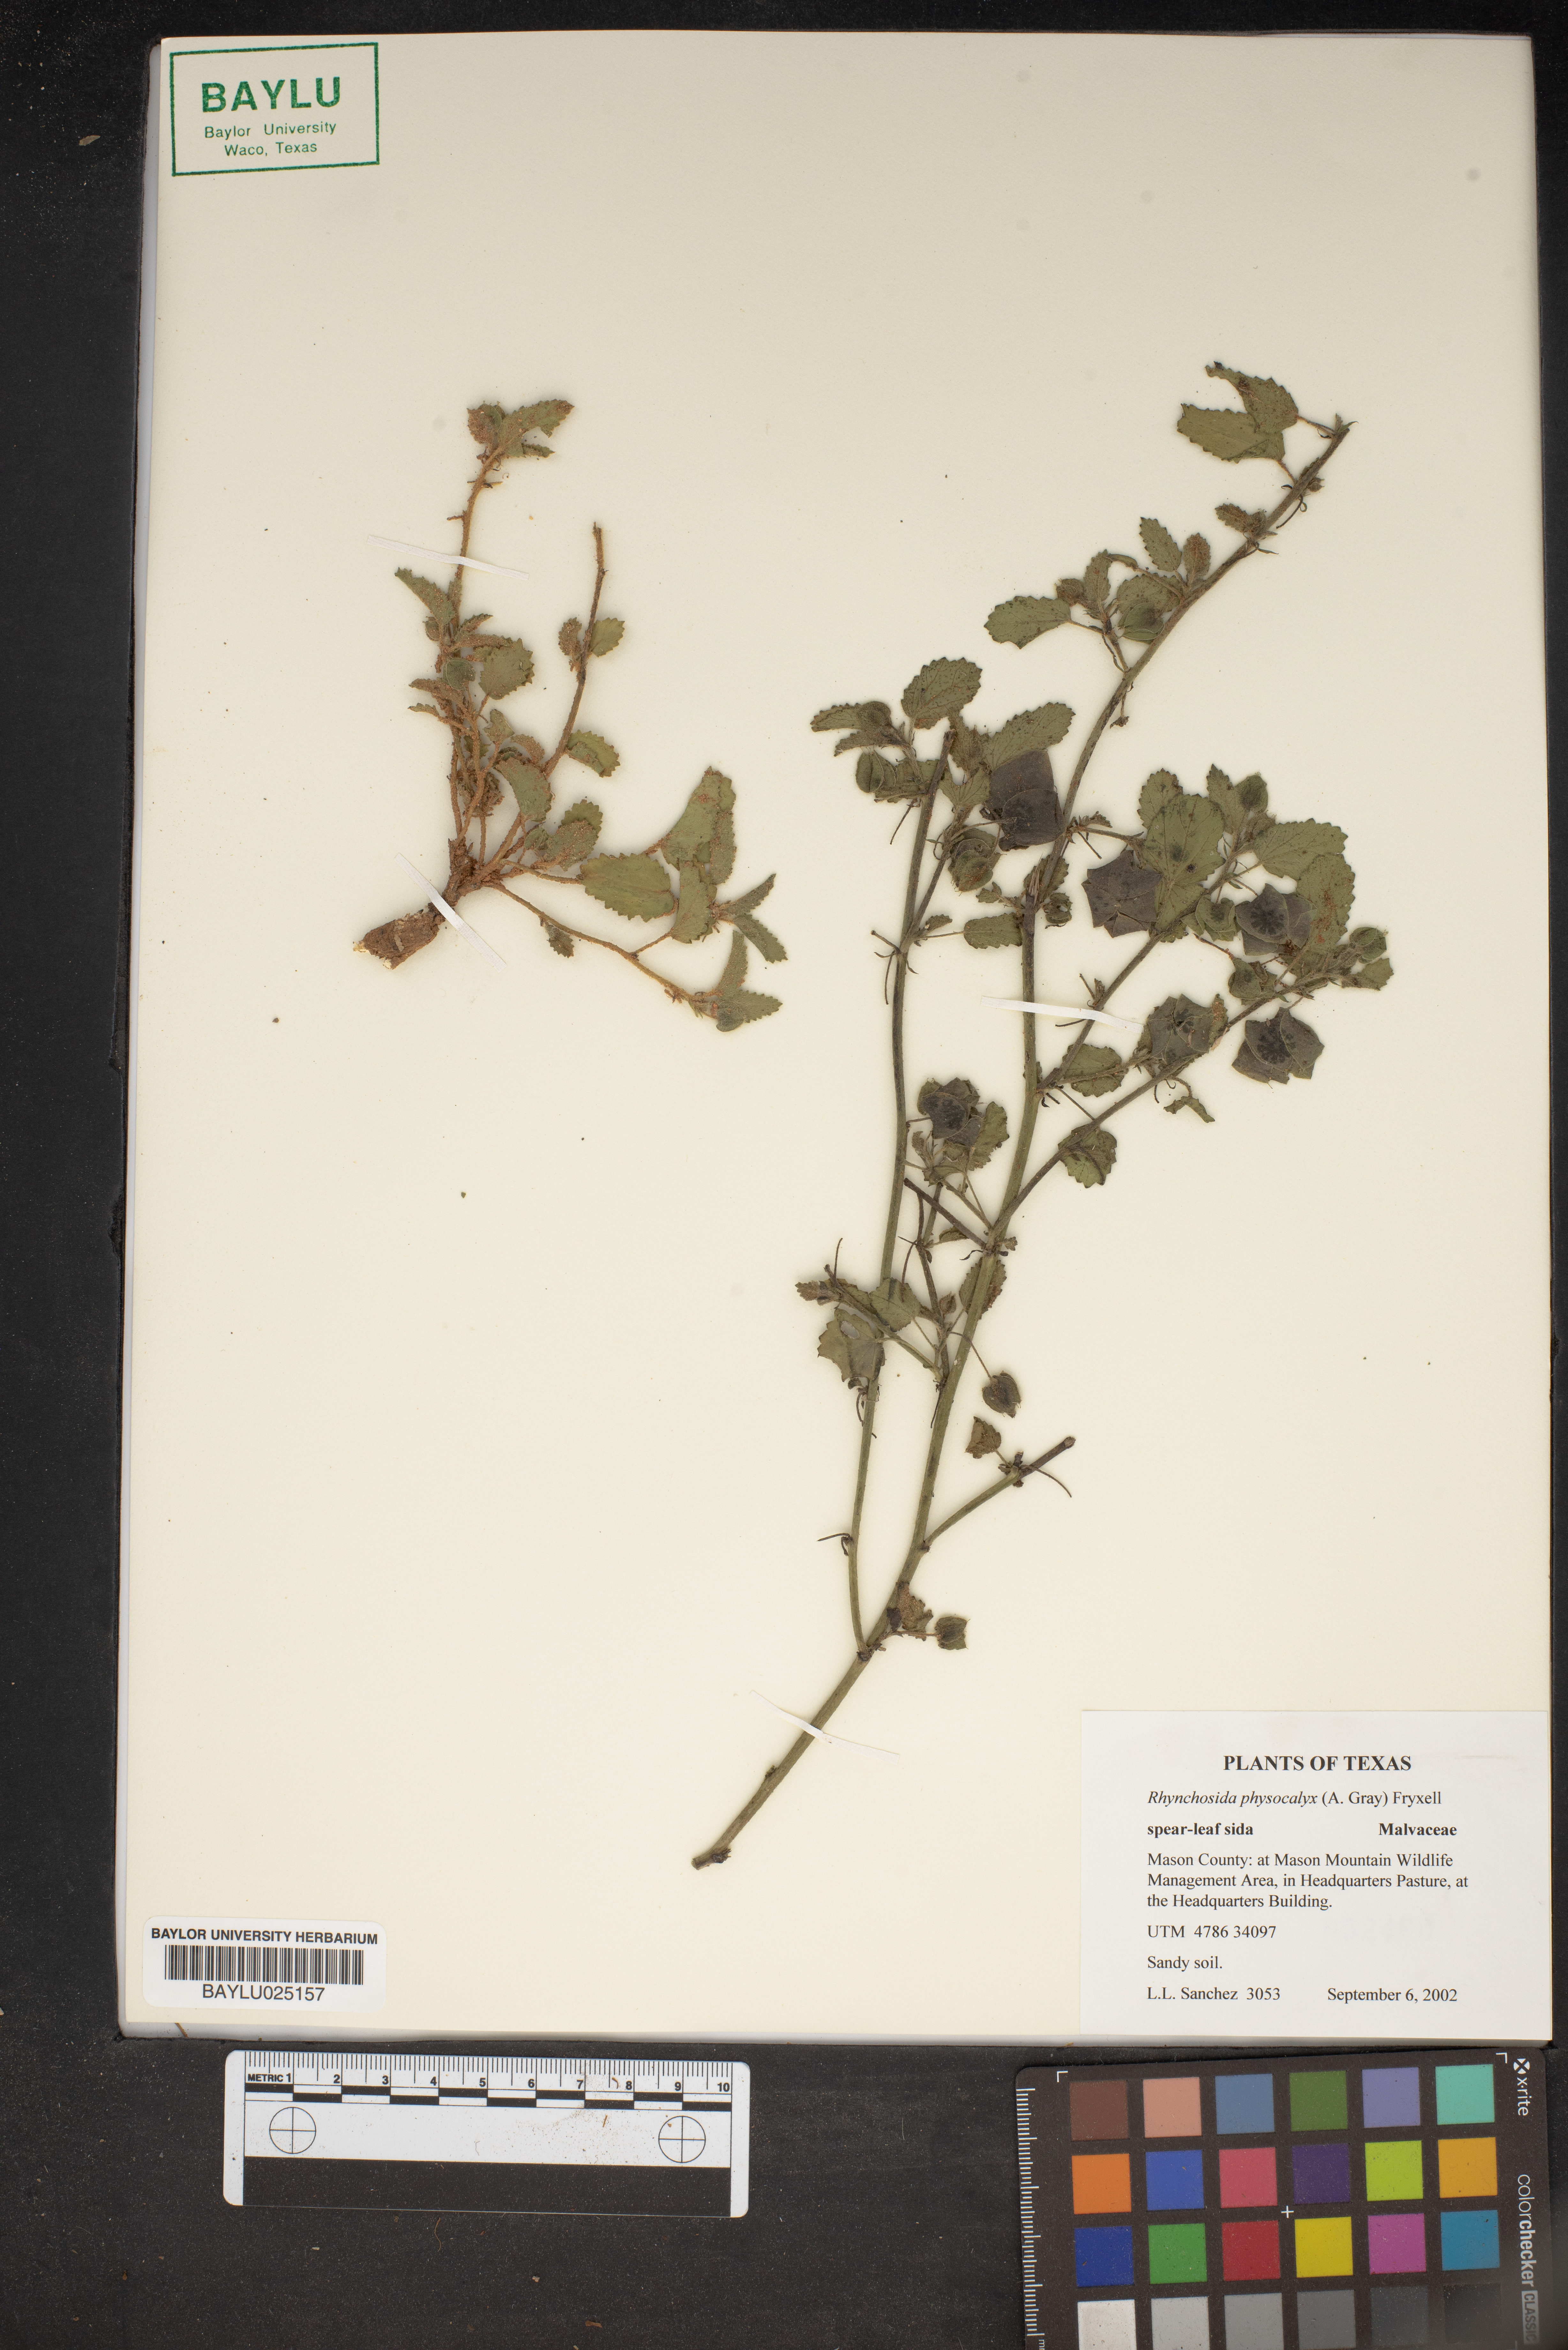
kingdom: Plantae
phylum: Tracheophyta
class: Magnoliopsida
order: Malvales
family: Malvaceae
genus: Rhynchosida
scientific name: Rhynchosida physocalyx
